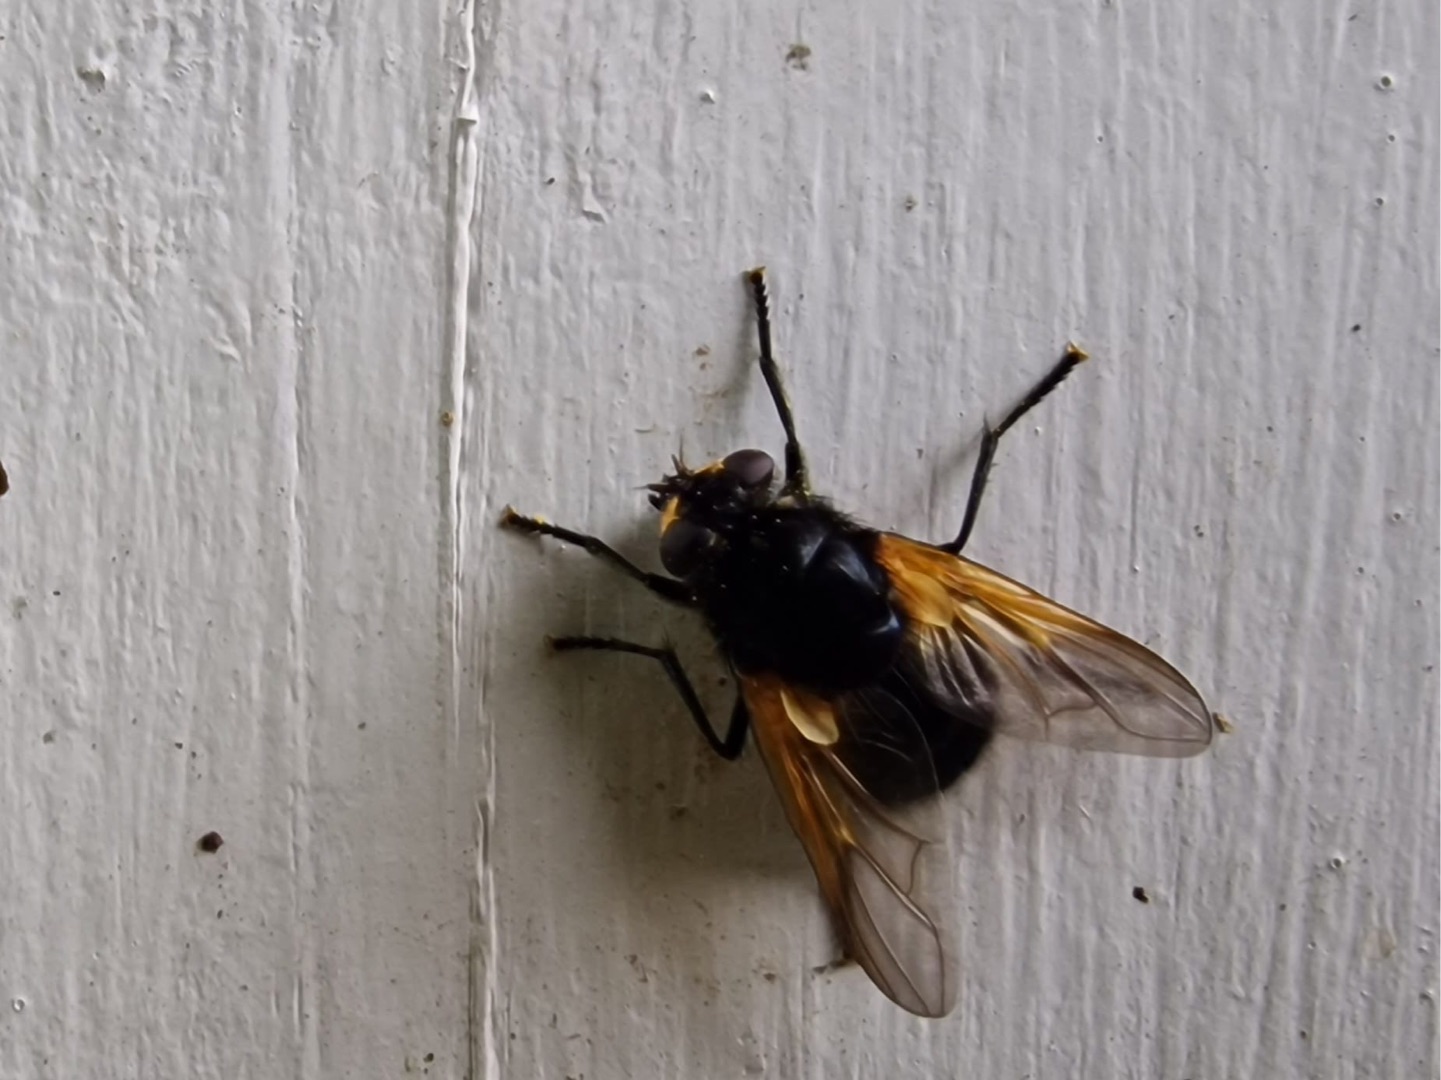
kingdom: Animalia
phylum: Arthropoda
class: Insecta
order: Diptera
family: Muscidae
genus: Mesembrina
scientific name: Mesembrina meridiana
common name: Gulvinget flue
